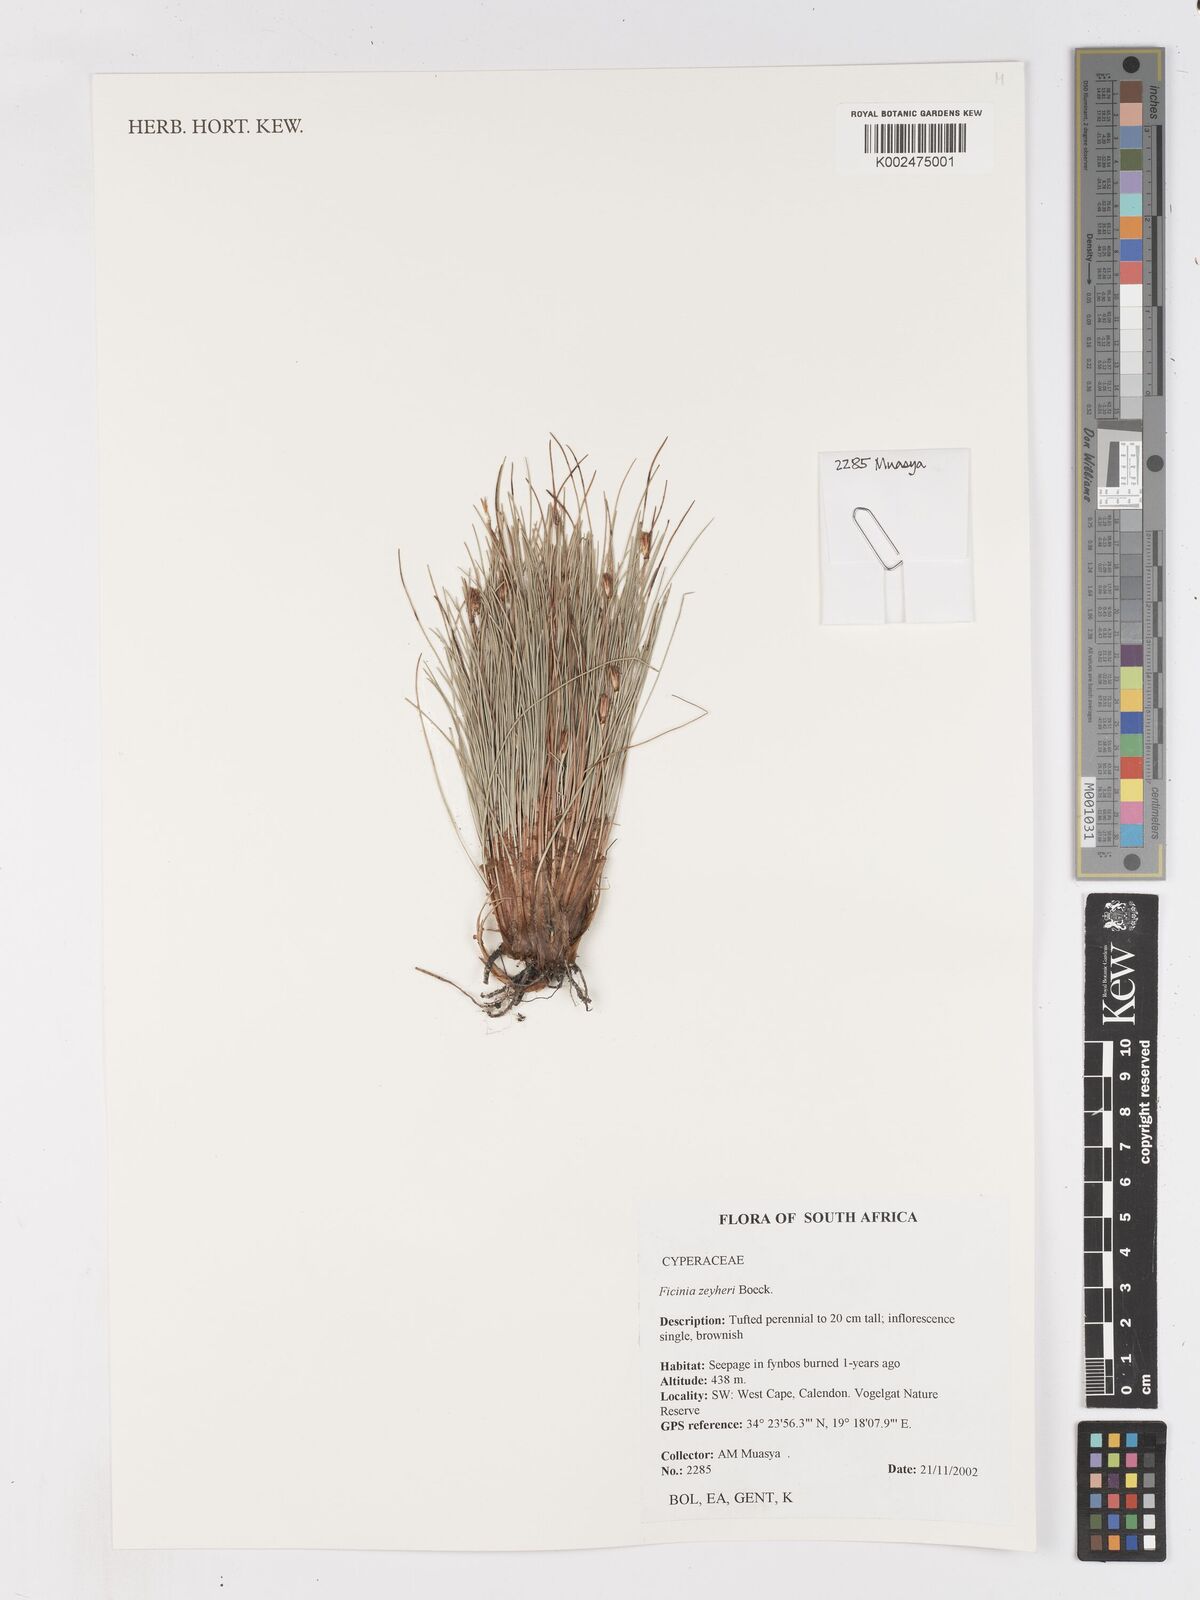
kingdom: Plantae
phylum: Tracheophyta
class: Liliopsida
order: Poales
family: Cyperaceae
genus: Ficinia
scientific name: Ficinia zeyheri
